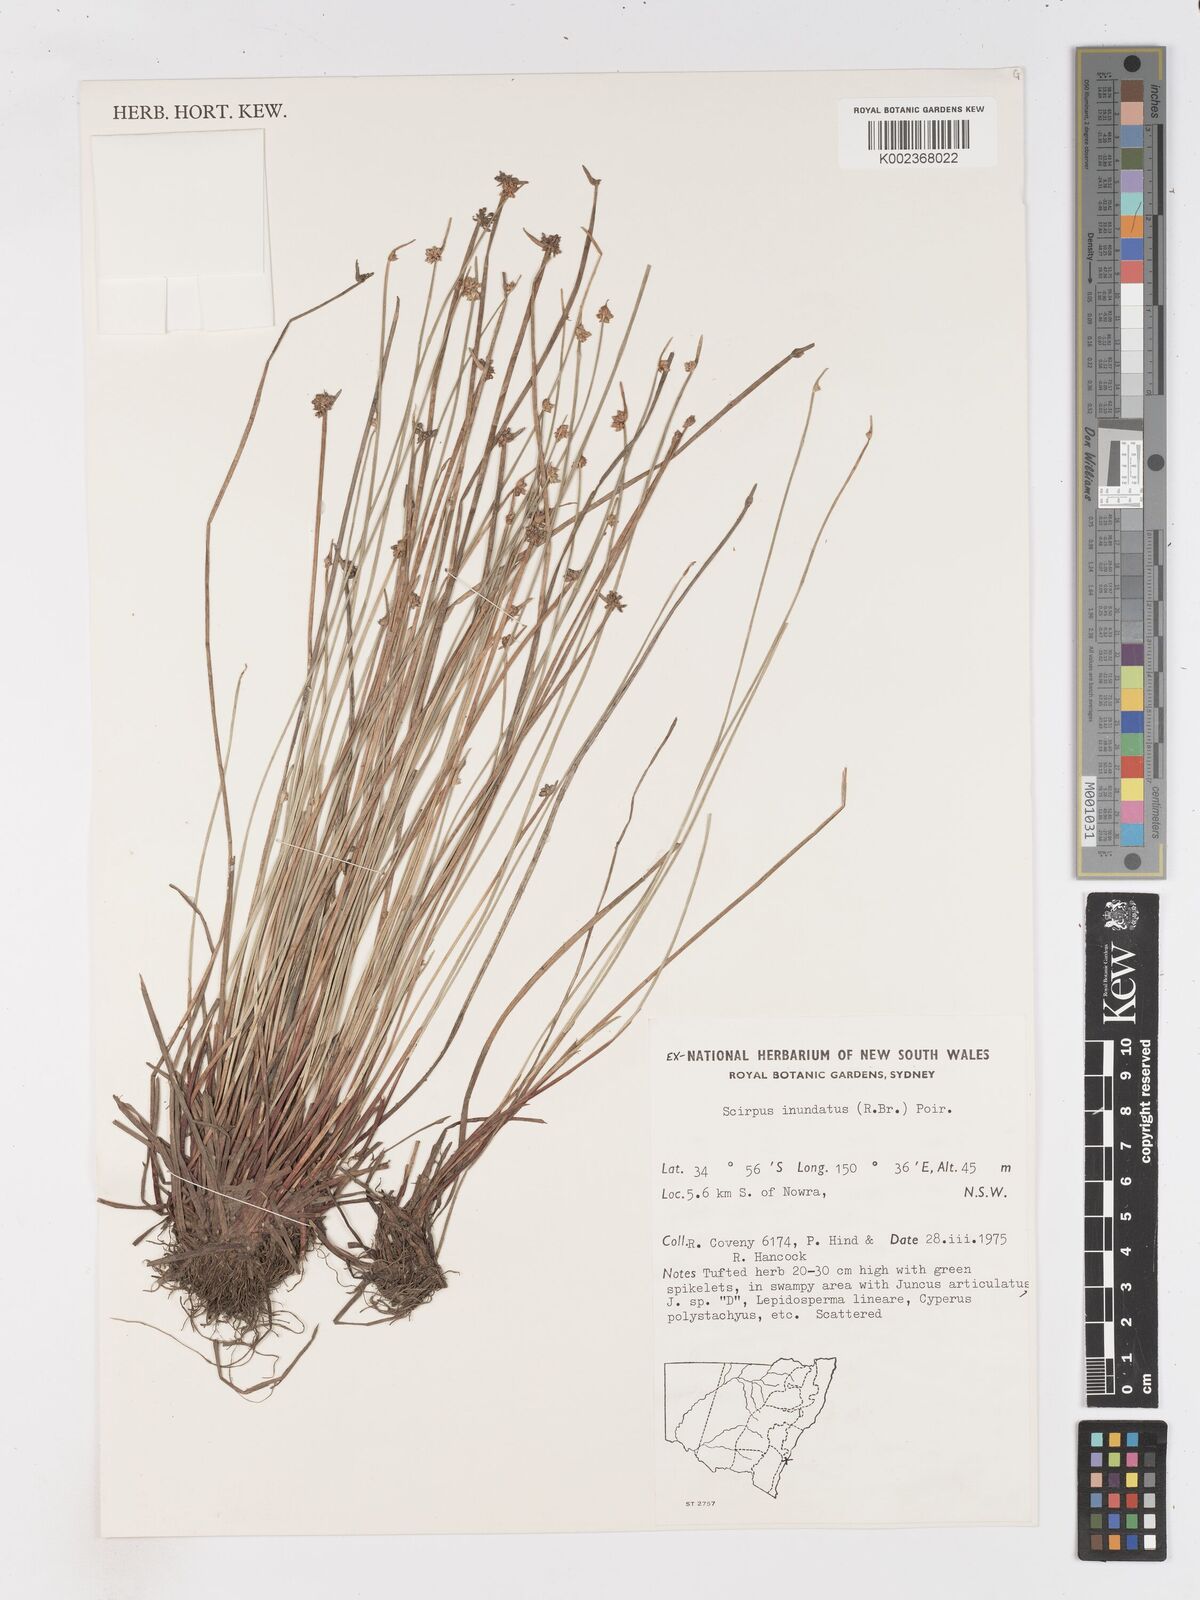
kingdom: Plantae
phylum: Tracheophyta
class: Liliopsida
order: Poales
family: Cyperaceae
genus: Isolepis
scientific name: Isolepis inundata
